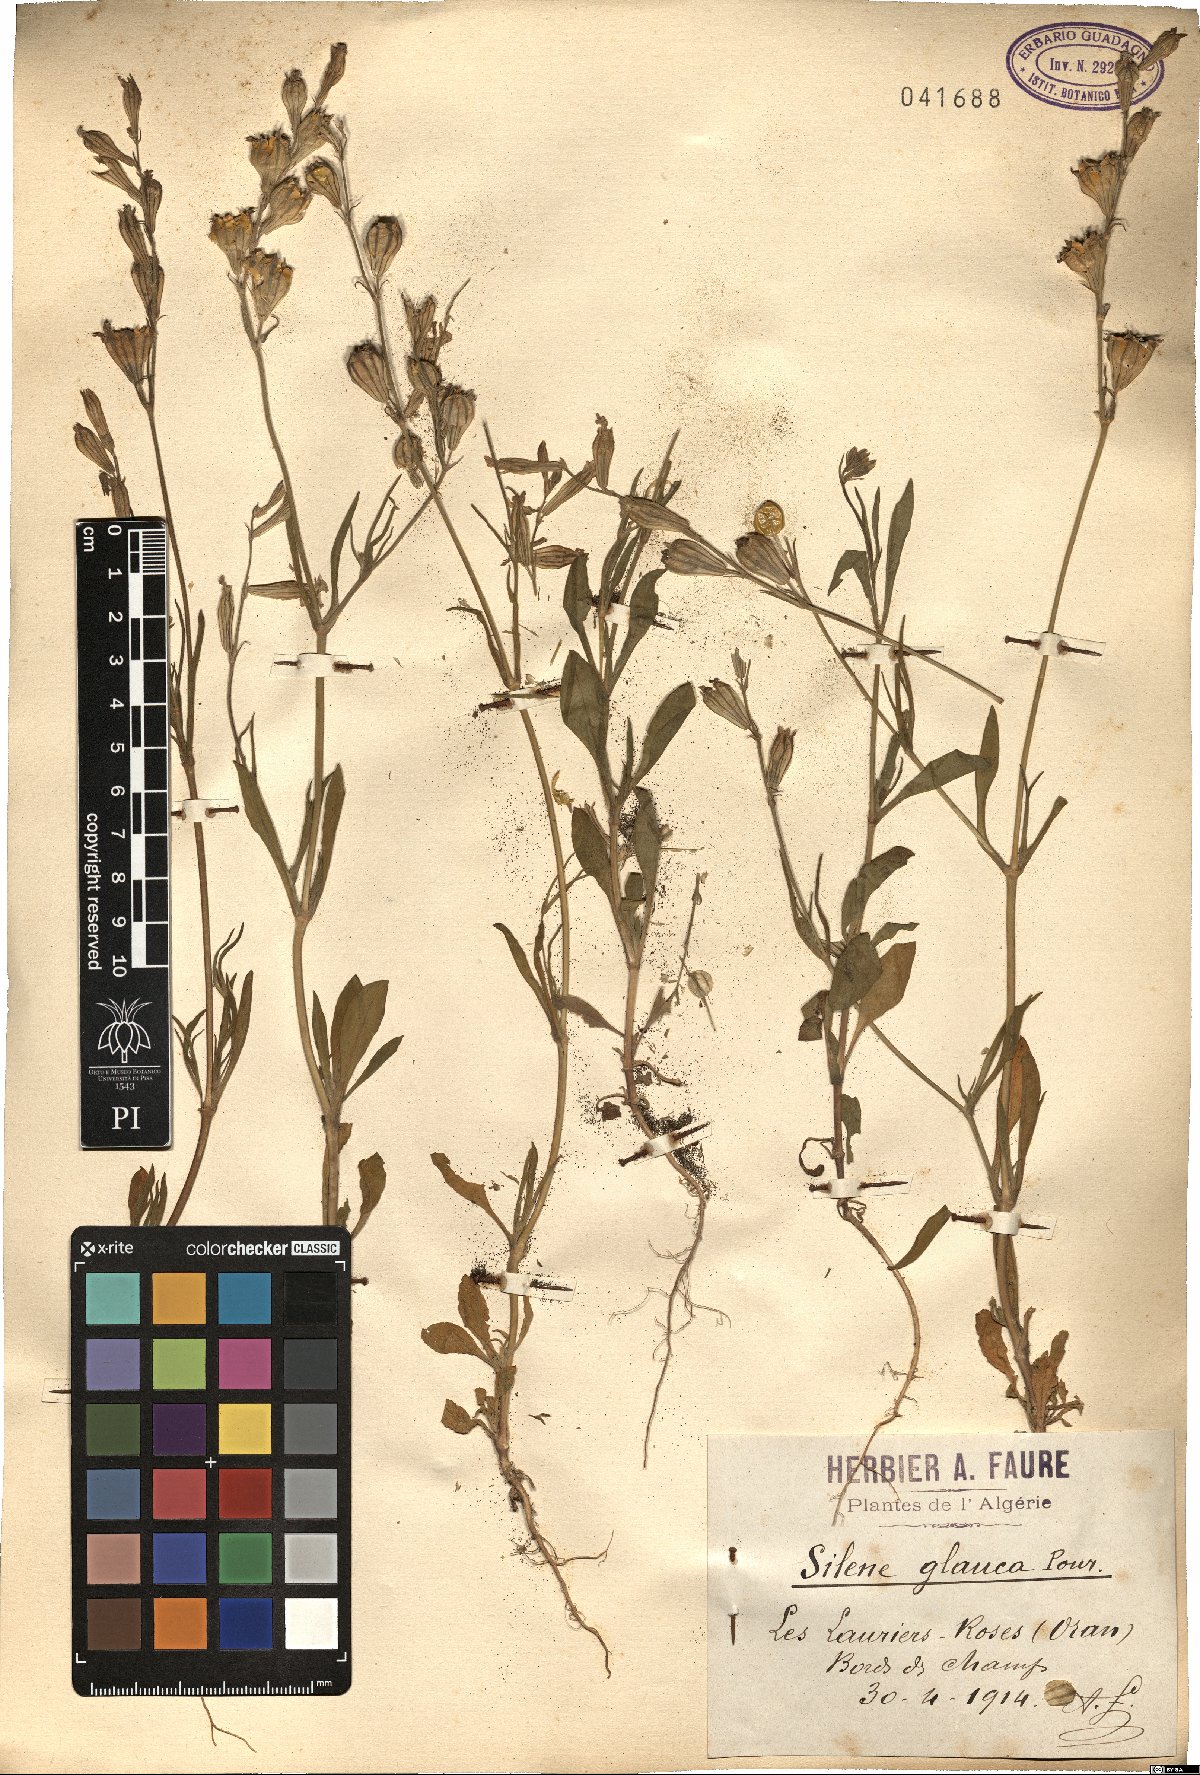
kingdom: Plantae
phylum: Tracheophyta
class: Magnoliopsida
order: Caryophyllales
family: Caryophyllaceae
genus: Silene
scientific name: Silene secundiflora
